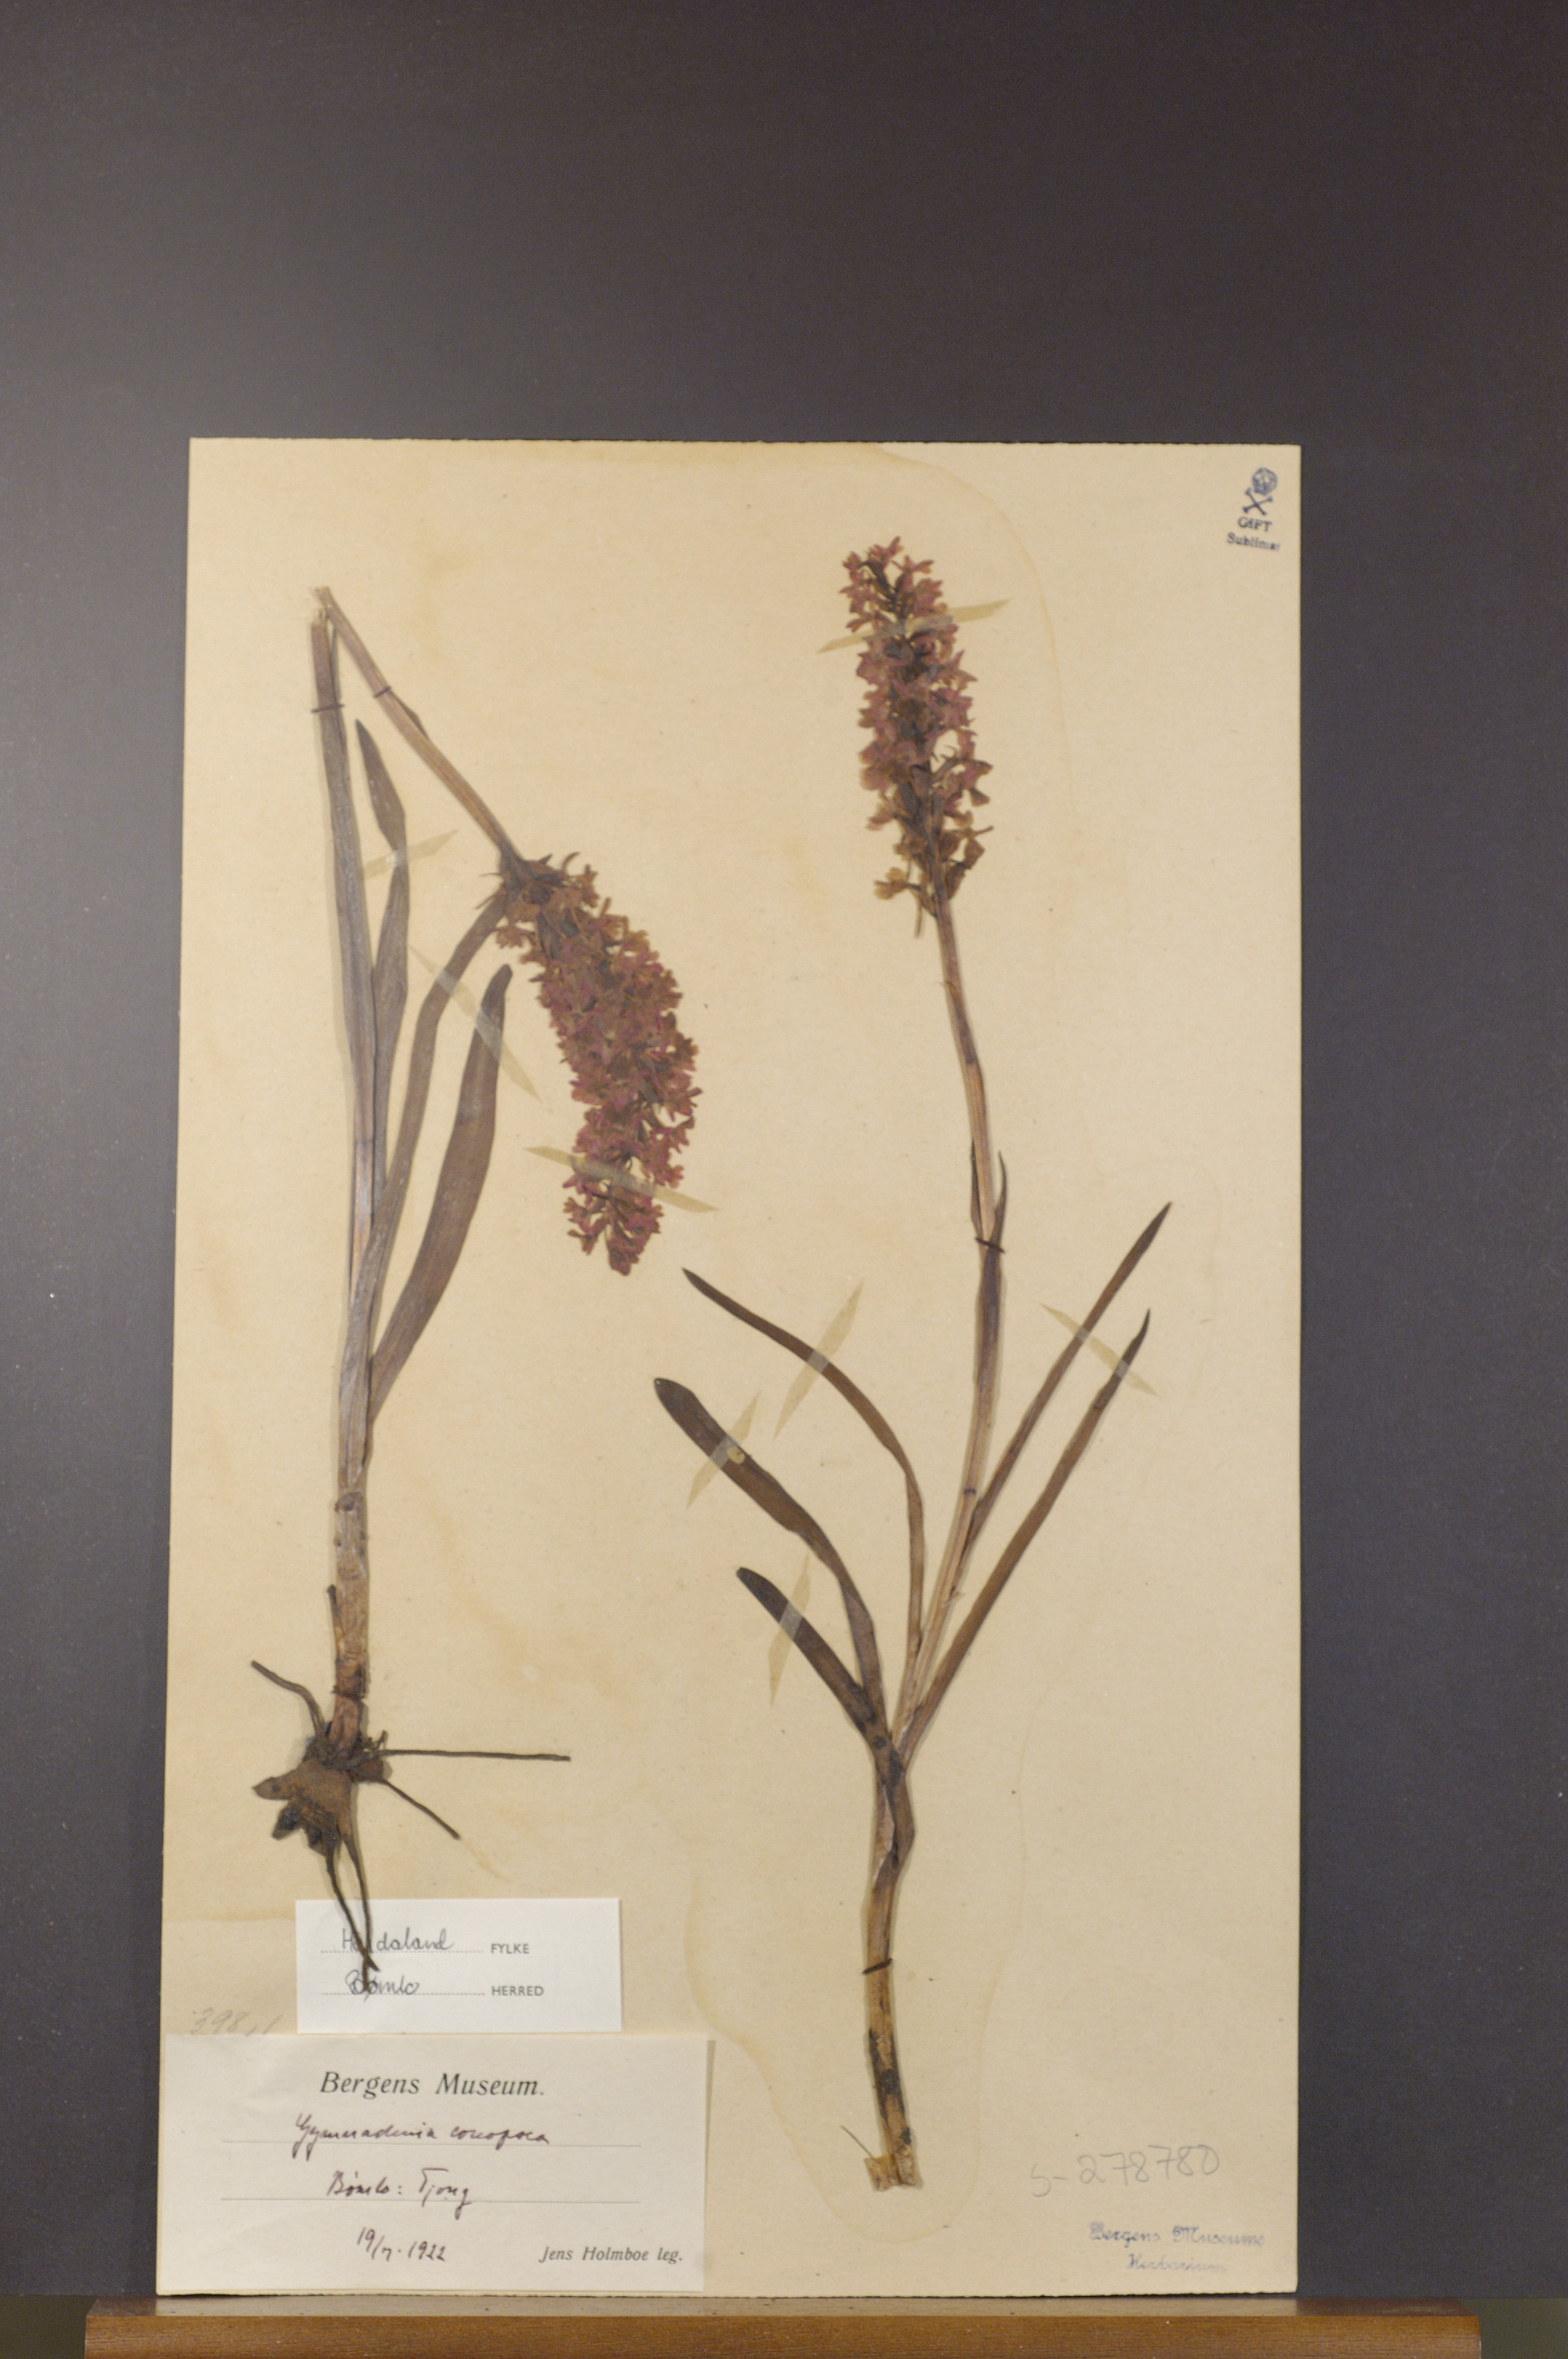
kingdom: Plantae
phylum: Tracheophyta
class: Liliopsida
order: Asparagales
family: Orchidaceae
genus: Gymnadenia
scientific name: Gymnadenia conopsea
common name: Fragrant orchid
